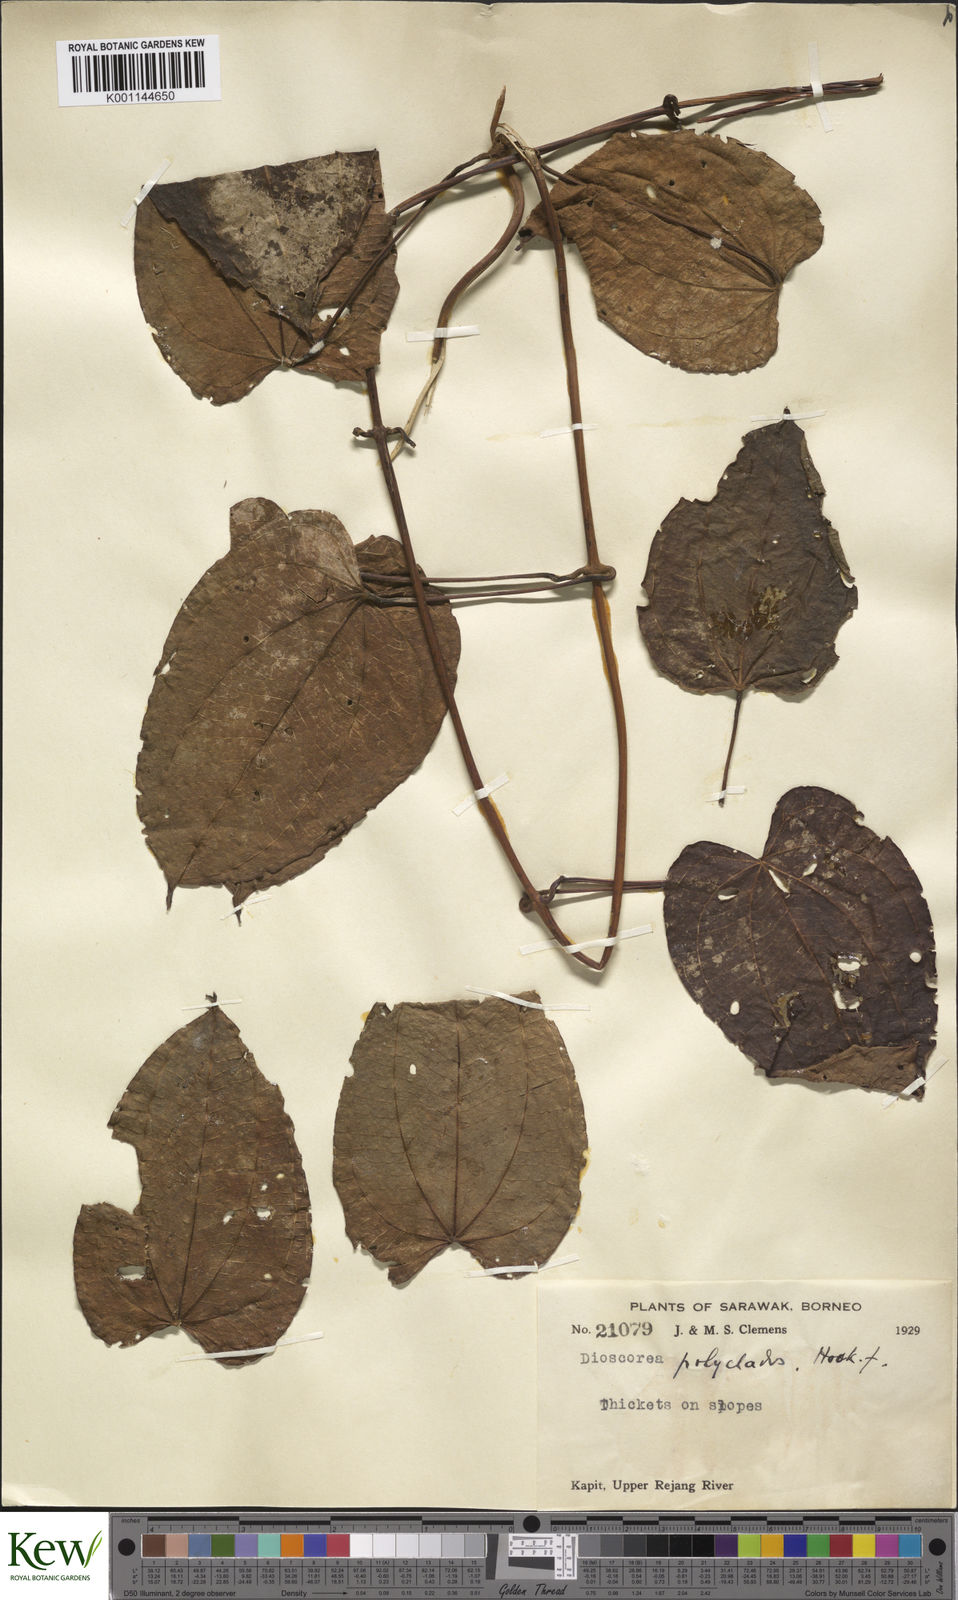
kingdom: Plantae
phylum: Tracheophyta
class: Liliopsida
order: Dioscoreales
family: Dioscoreaceae
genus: Dioscorea
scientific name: Dioscorea polyclados
